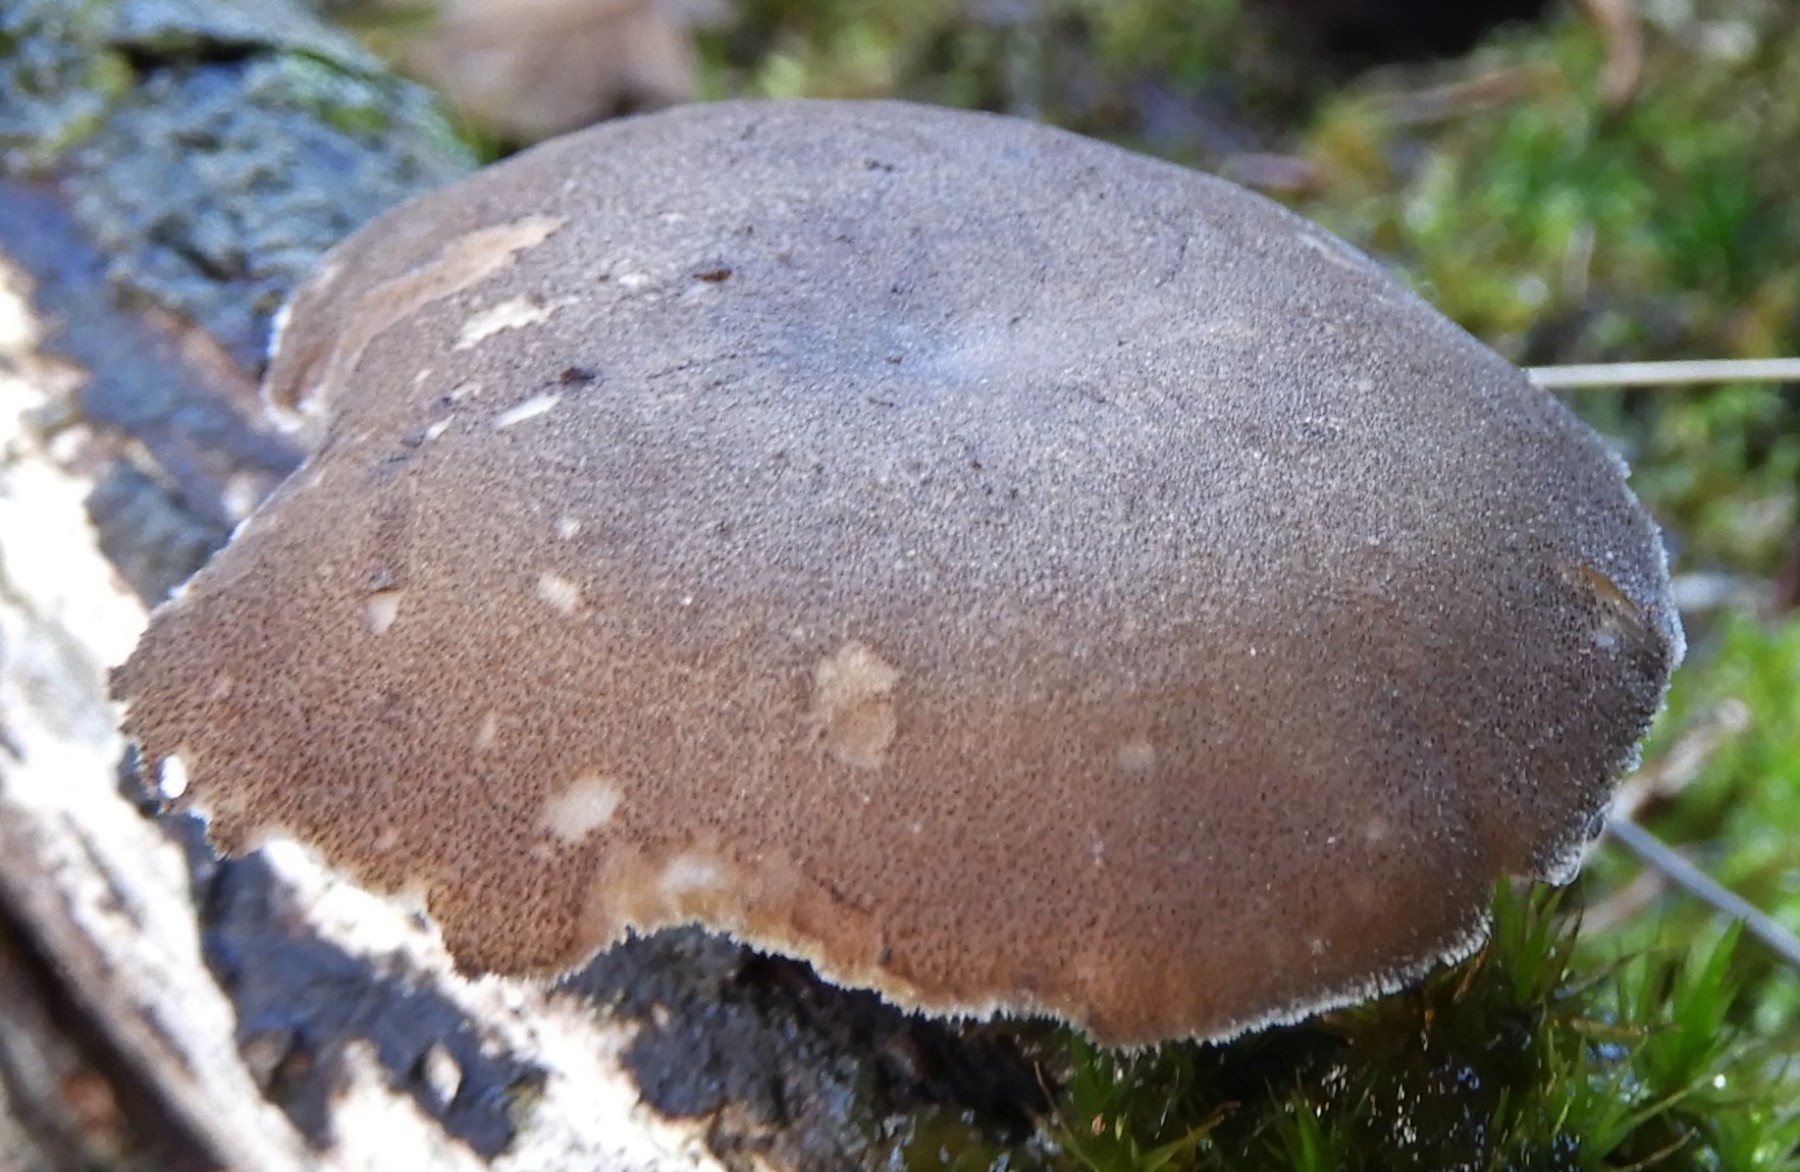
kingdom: Fungi
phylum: Basidiomycota
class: Agaricomycetes
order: Polyporales
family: Polyporaceae
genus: Lentinus
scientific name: Lentinus brumalis
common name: vinter-stilkporesvamp
